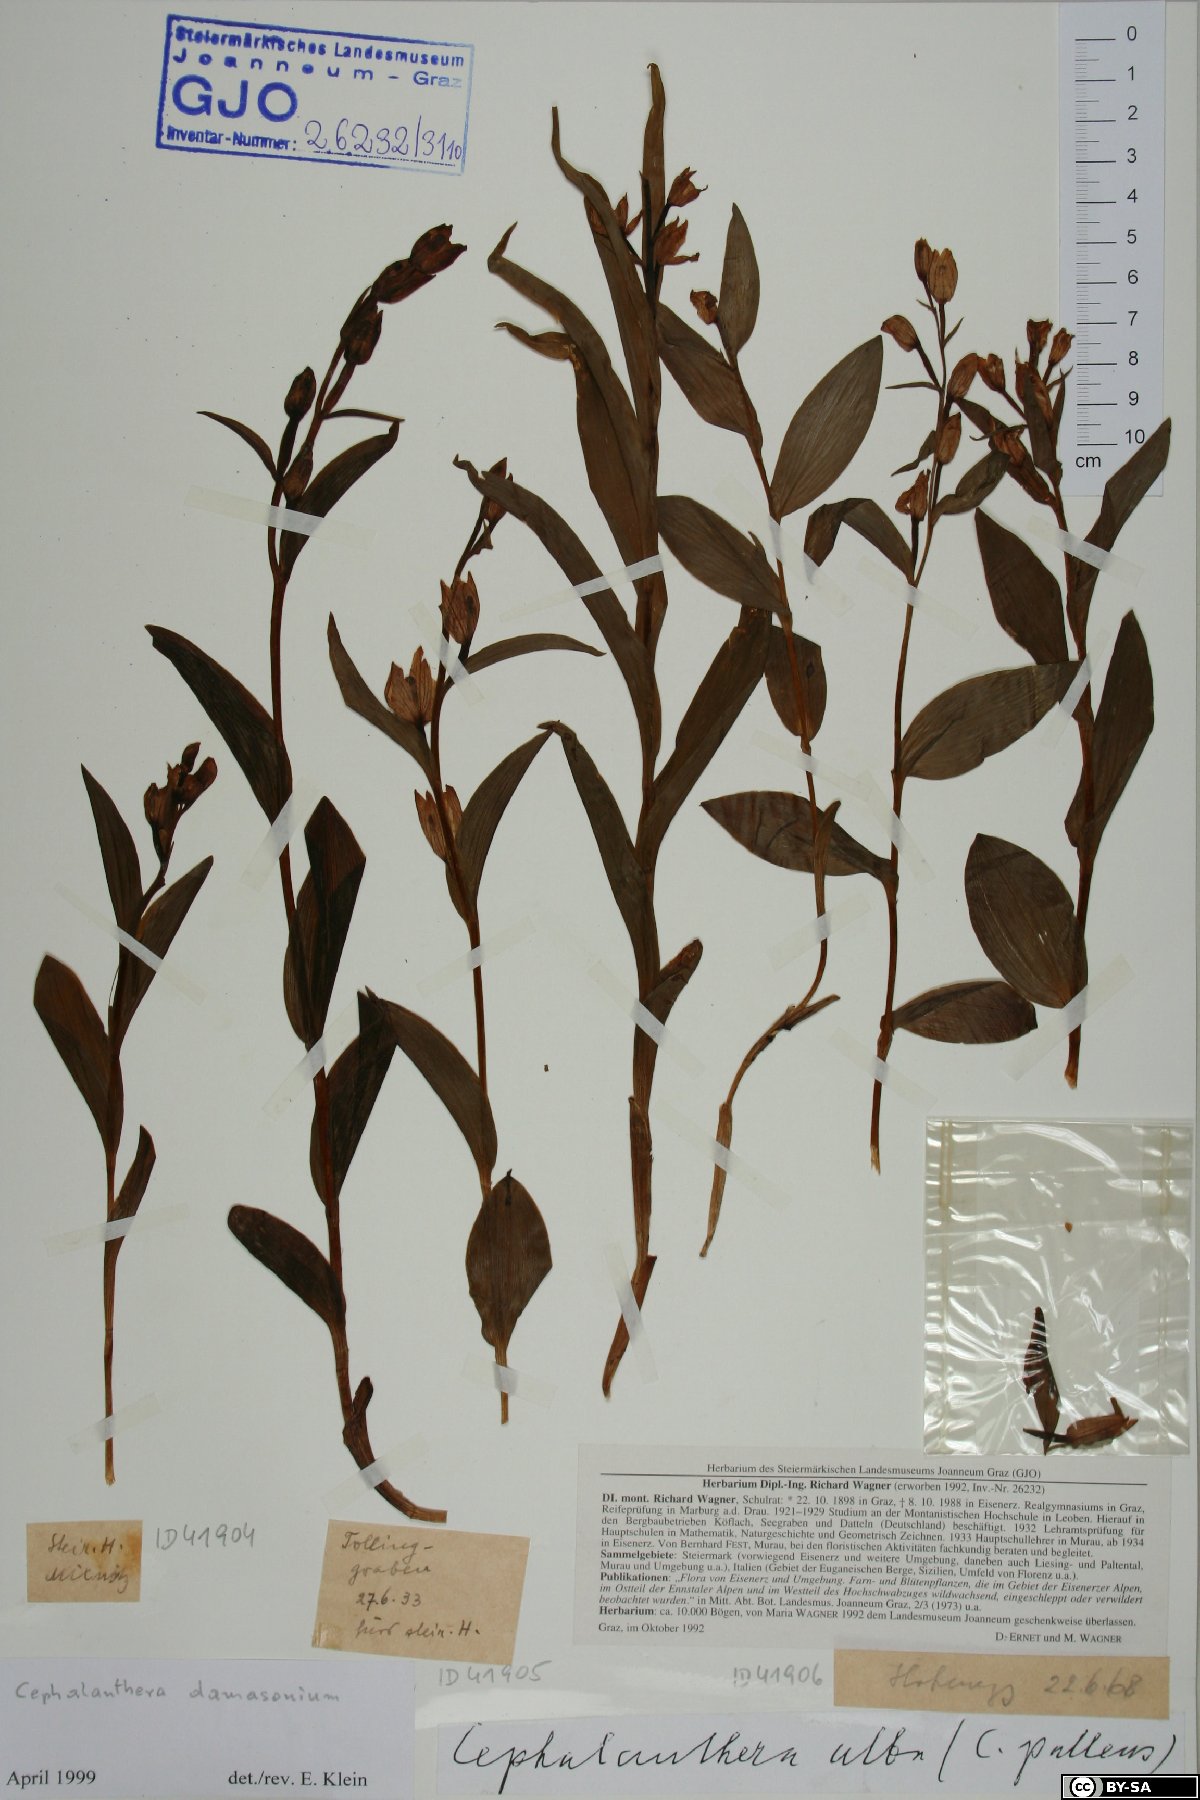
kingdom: Plantae
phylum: Tracheophyta
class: Liliopsida
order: Asparagales
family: Orchidaceae
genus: Cephalanthera
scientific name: Cephalanthera damasonium
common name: White helleborine
